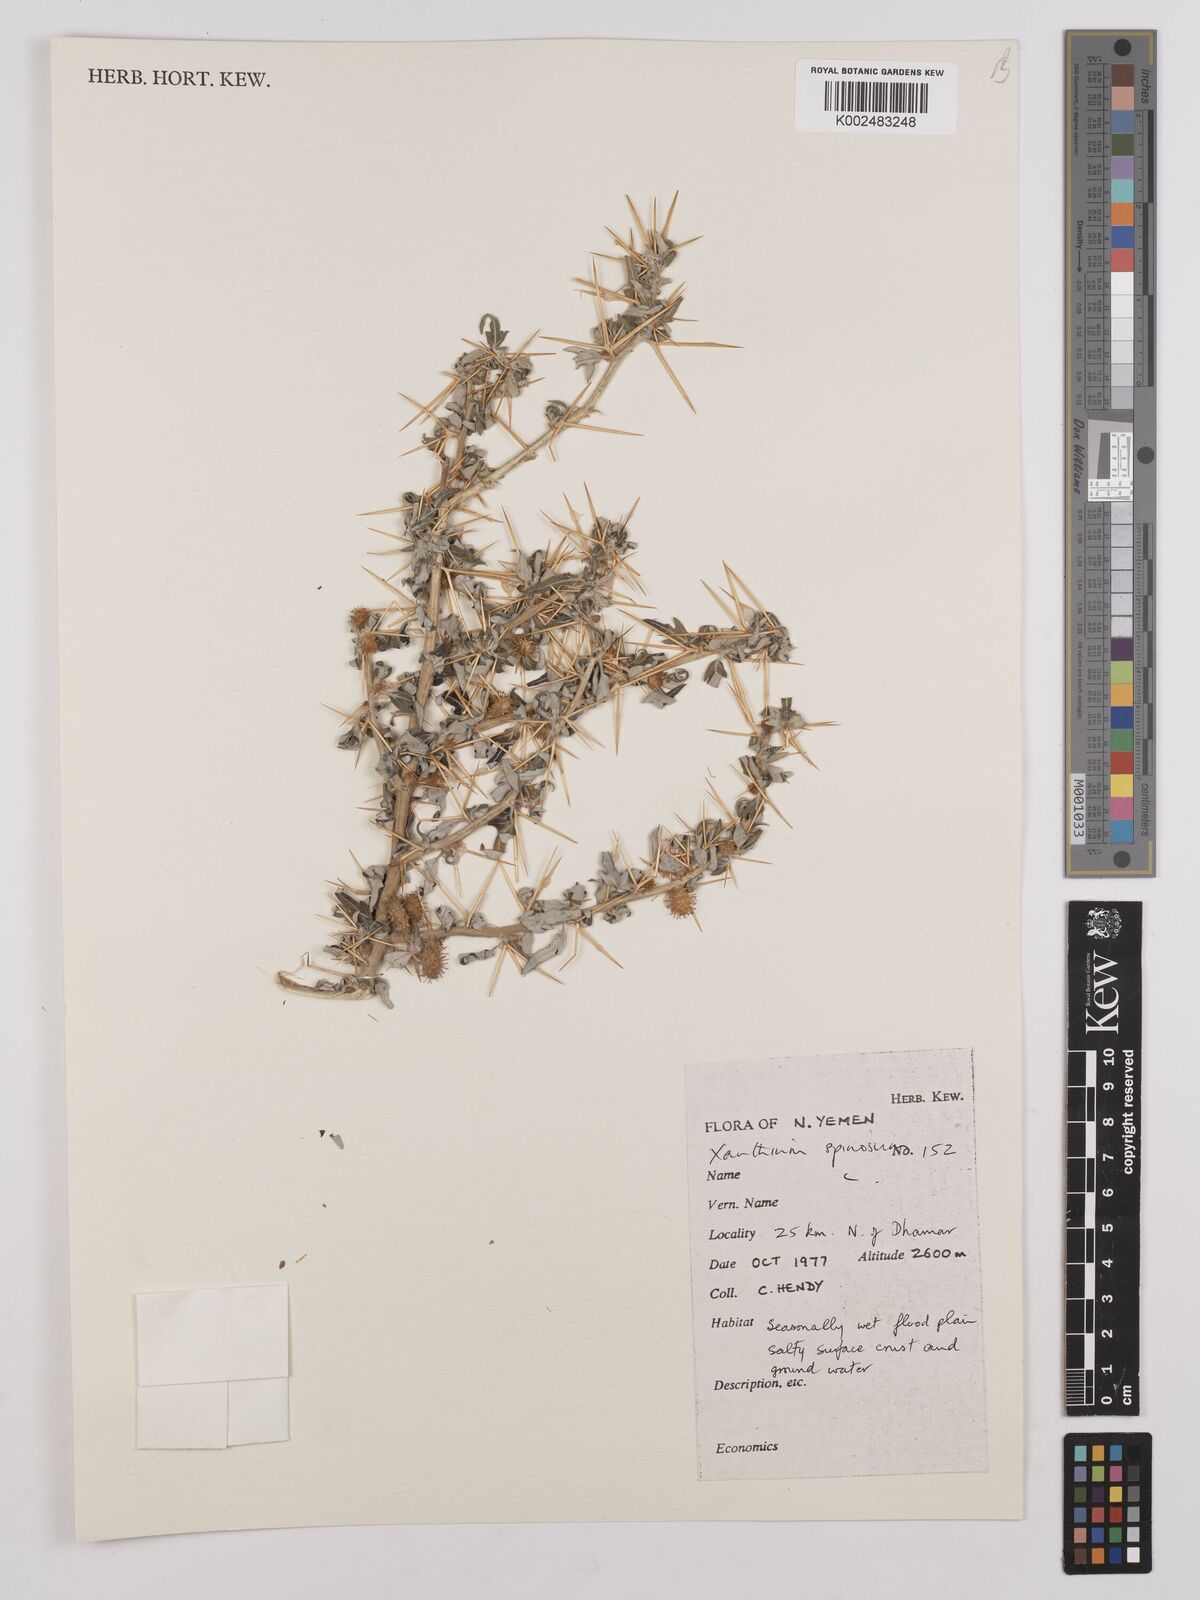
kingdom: Plantae
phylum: Tracheophyta
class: Magnoliopsida
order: Asterales
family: Asteraceae
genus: Xanthium
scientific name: Xanthium spinosum
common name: Spiny cocklebur
